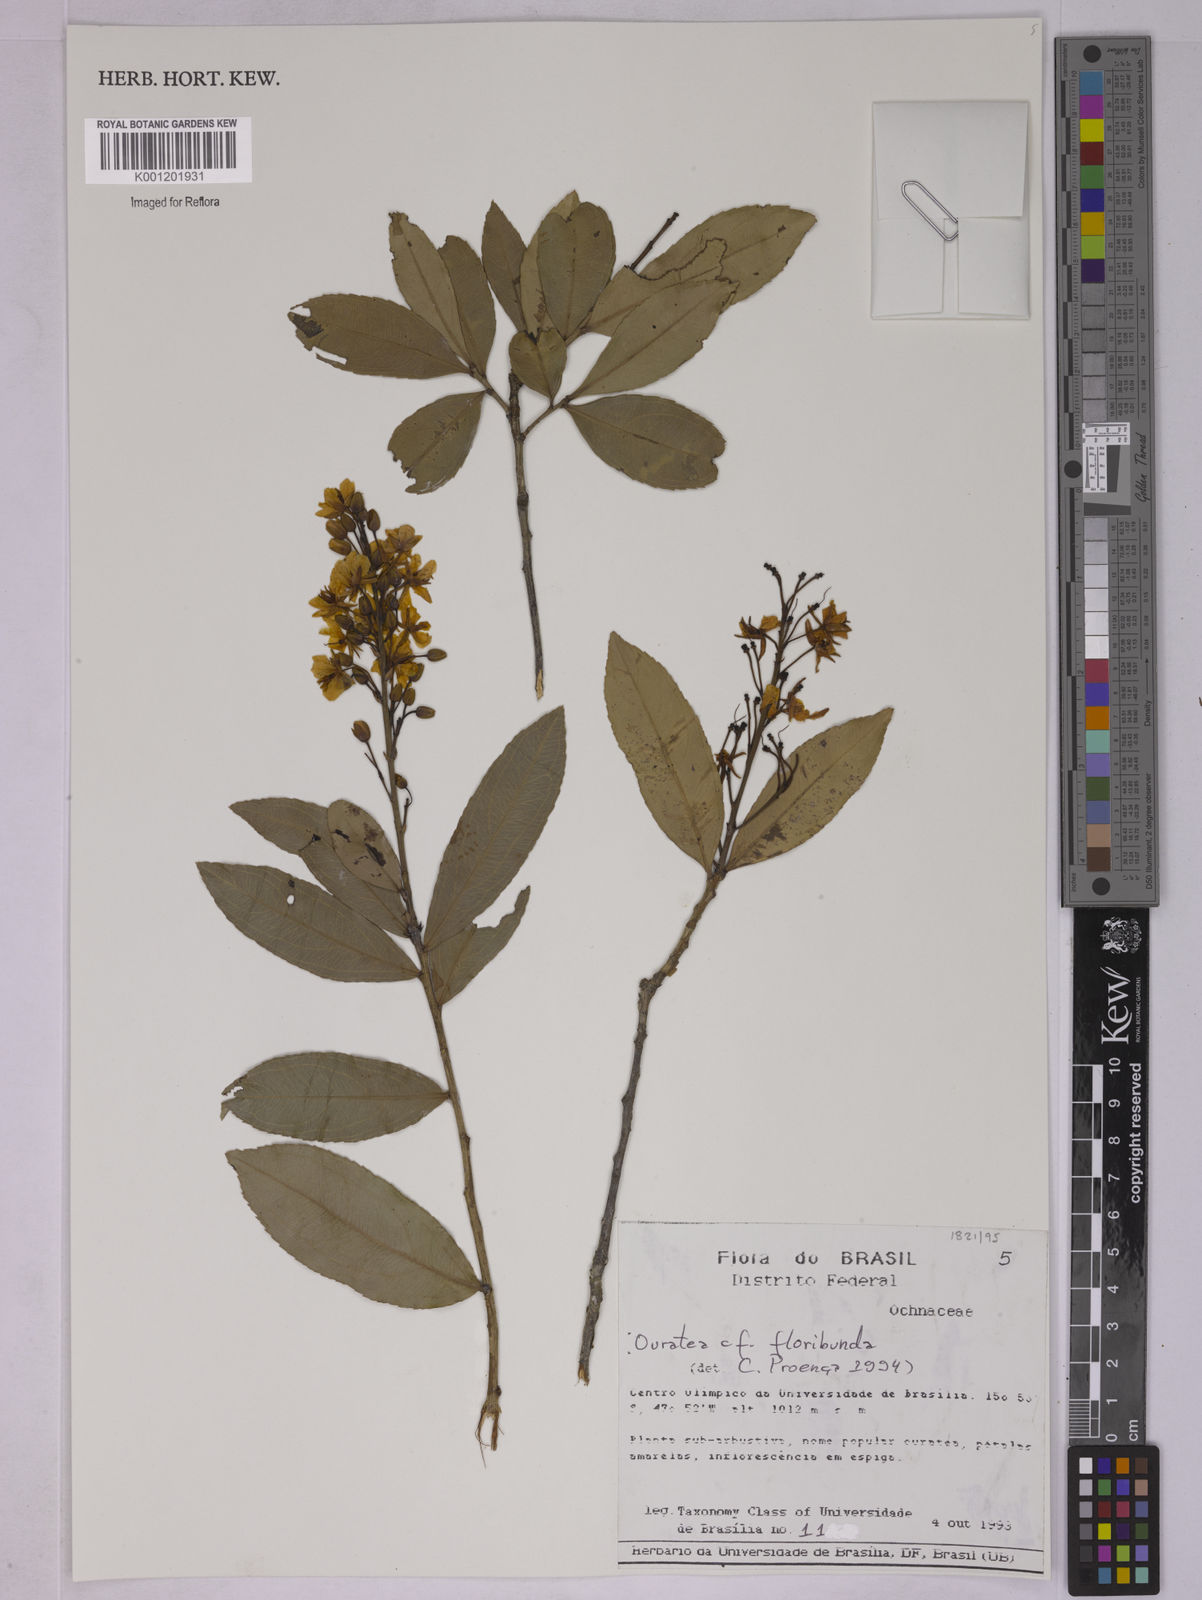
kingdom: Plantae
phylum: Tracheophyta
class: Magnoliopsida
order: Malpighiales
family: Ochnaceae
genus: Ouratea
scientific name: Ouratea floribunda
